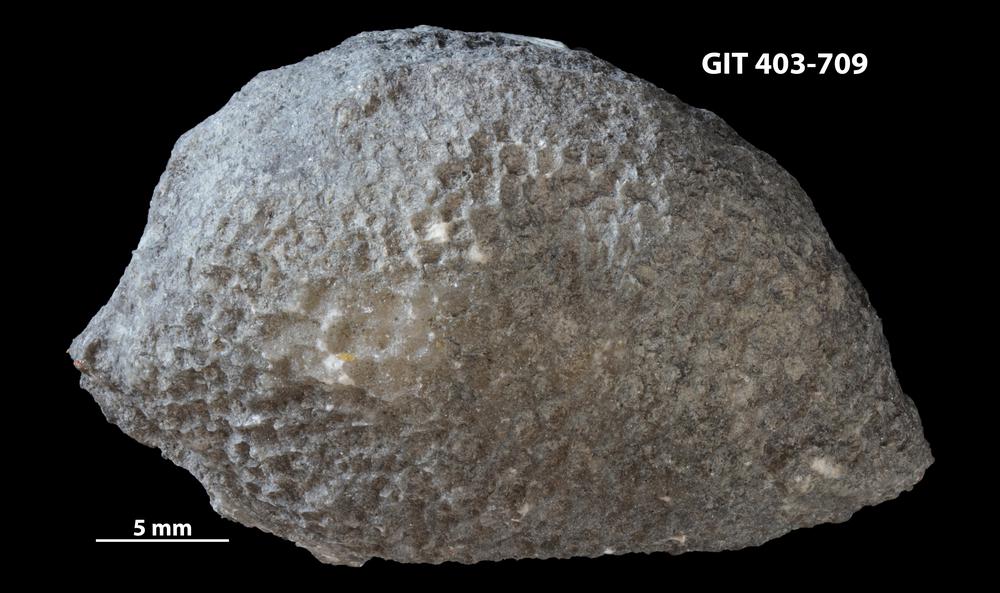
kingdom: Animalia
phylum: Cnidaria
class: Anthozoa
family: Favositidae
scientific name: Favositidae
